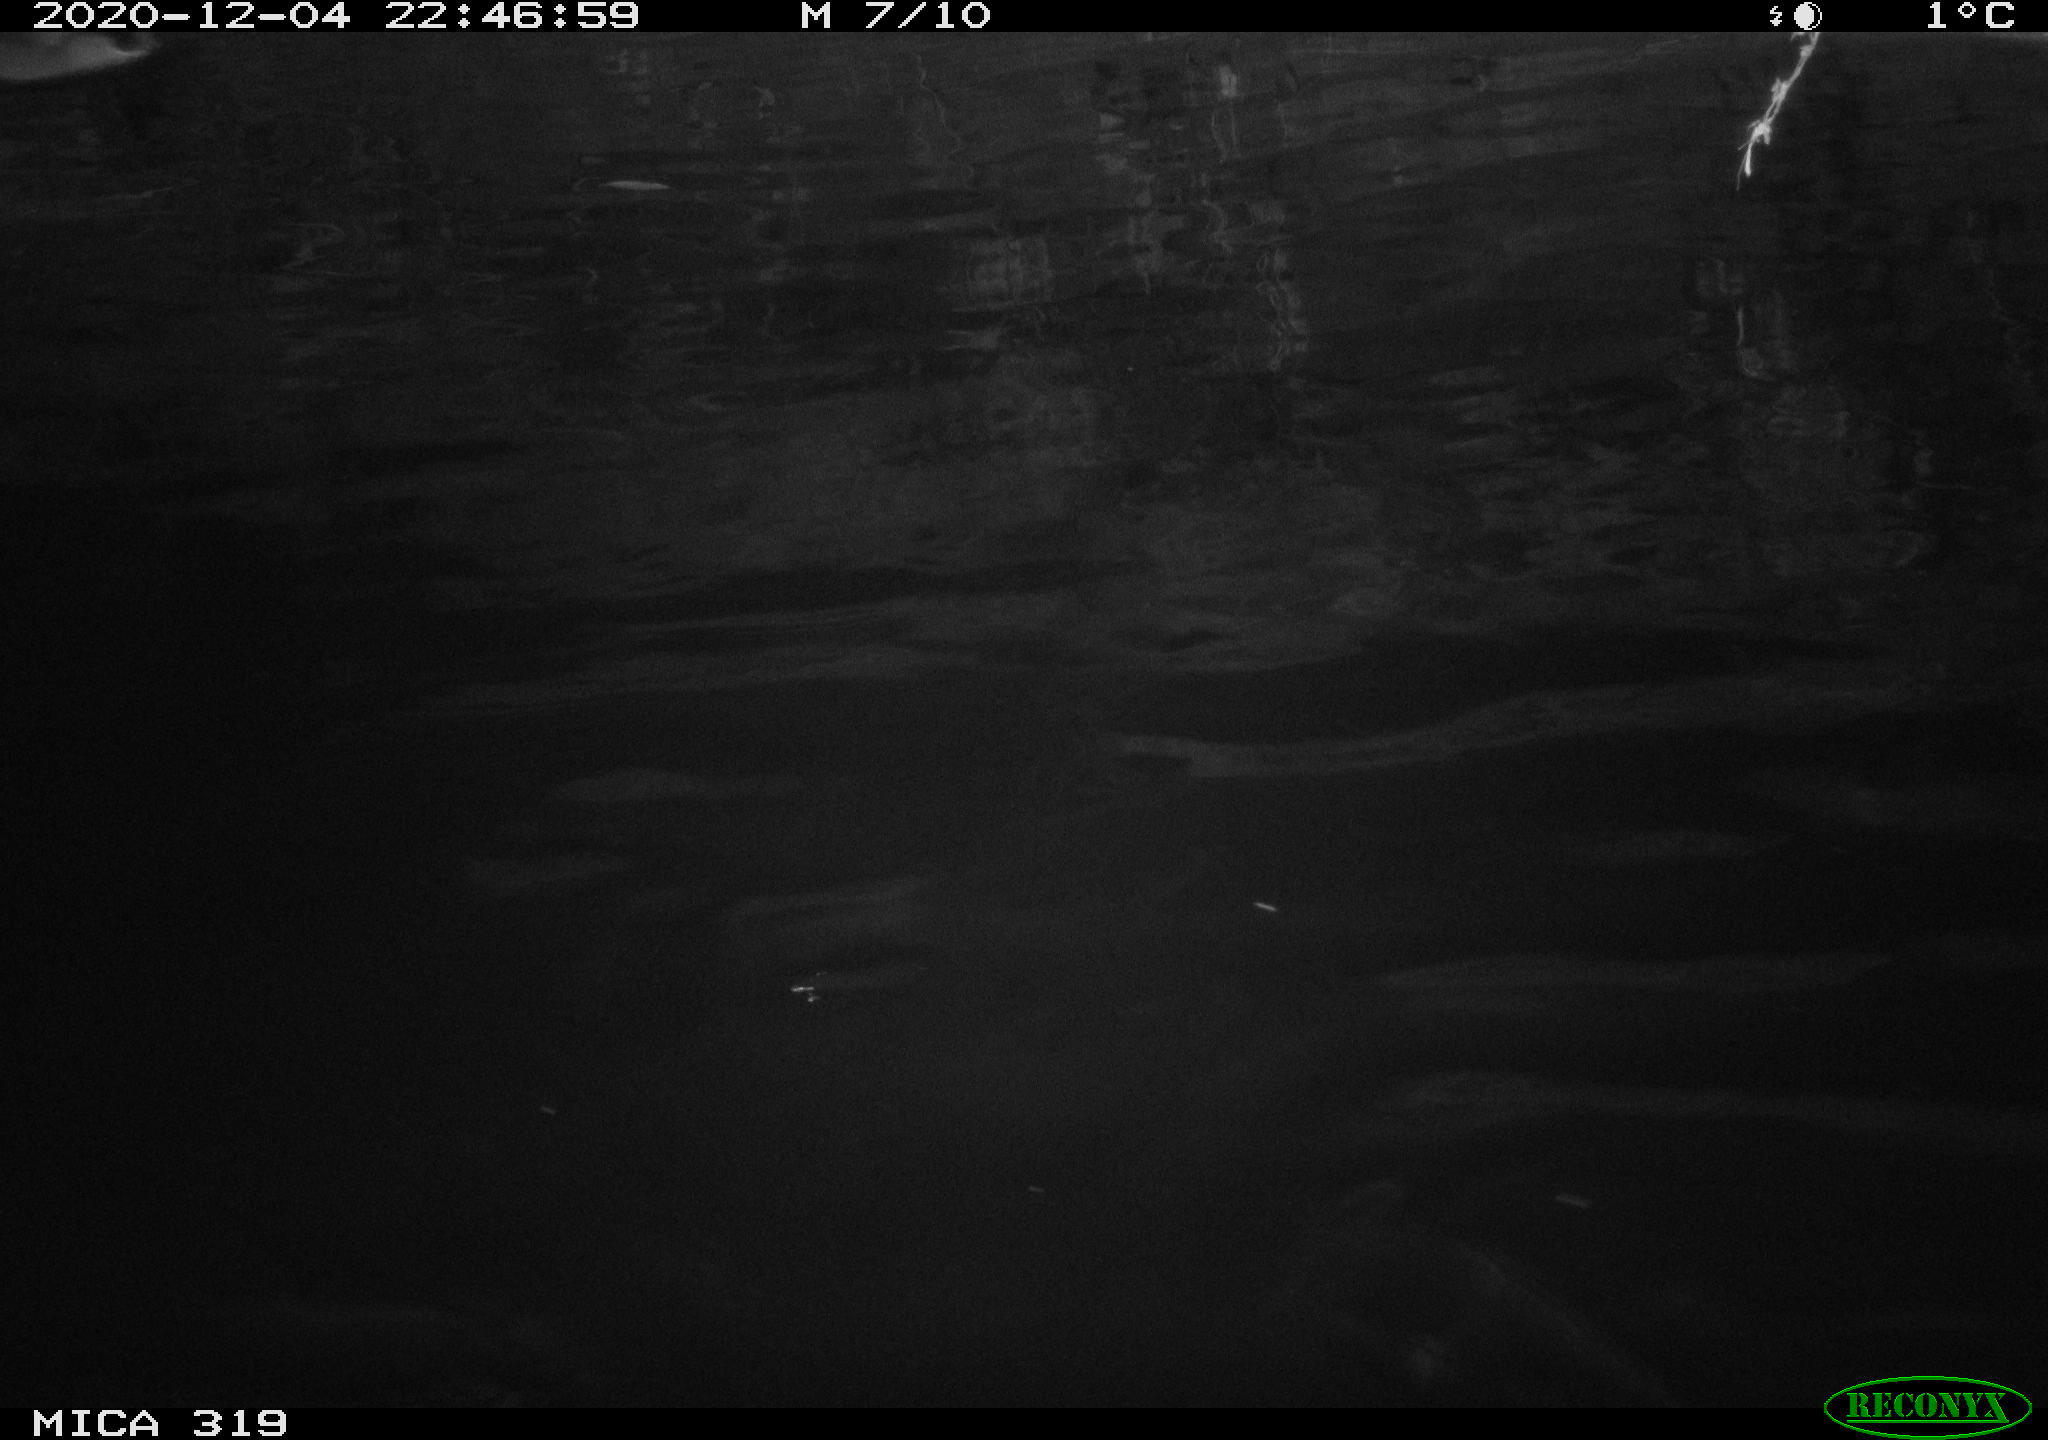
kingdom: Animalia
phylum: Chordata
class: Aves
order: Anseriformes
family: Anatidae
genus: Anas
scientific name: Anas platyrhynchos
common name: Mallard
